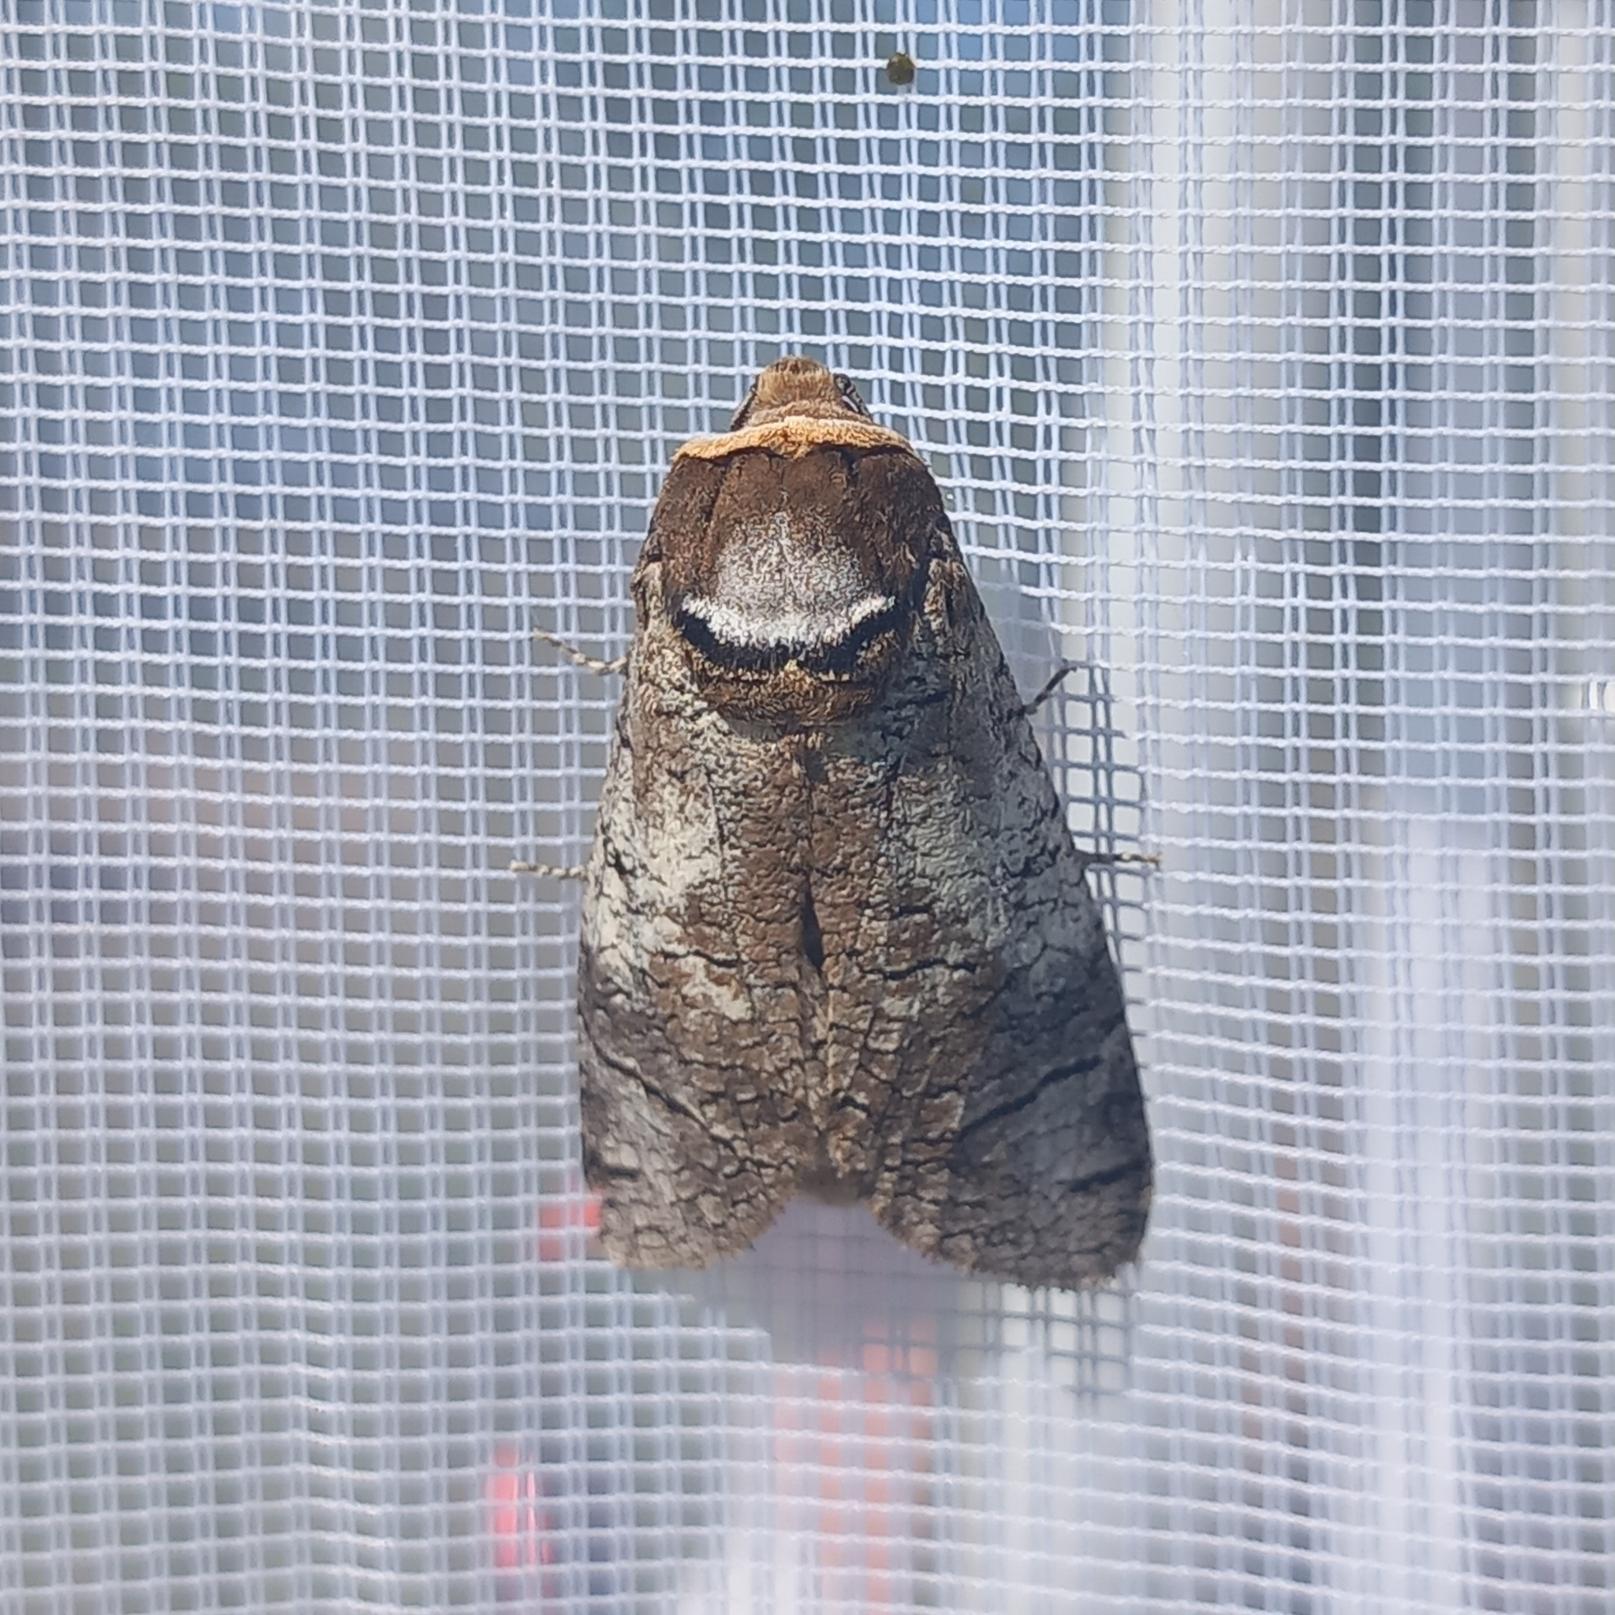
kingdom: Animalia
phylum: Arthropoda
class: Insecta
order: Lepidoptera
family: Cossidae
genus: Cossus
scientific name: Cossus cossus
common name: Pileborer
